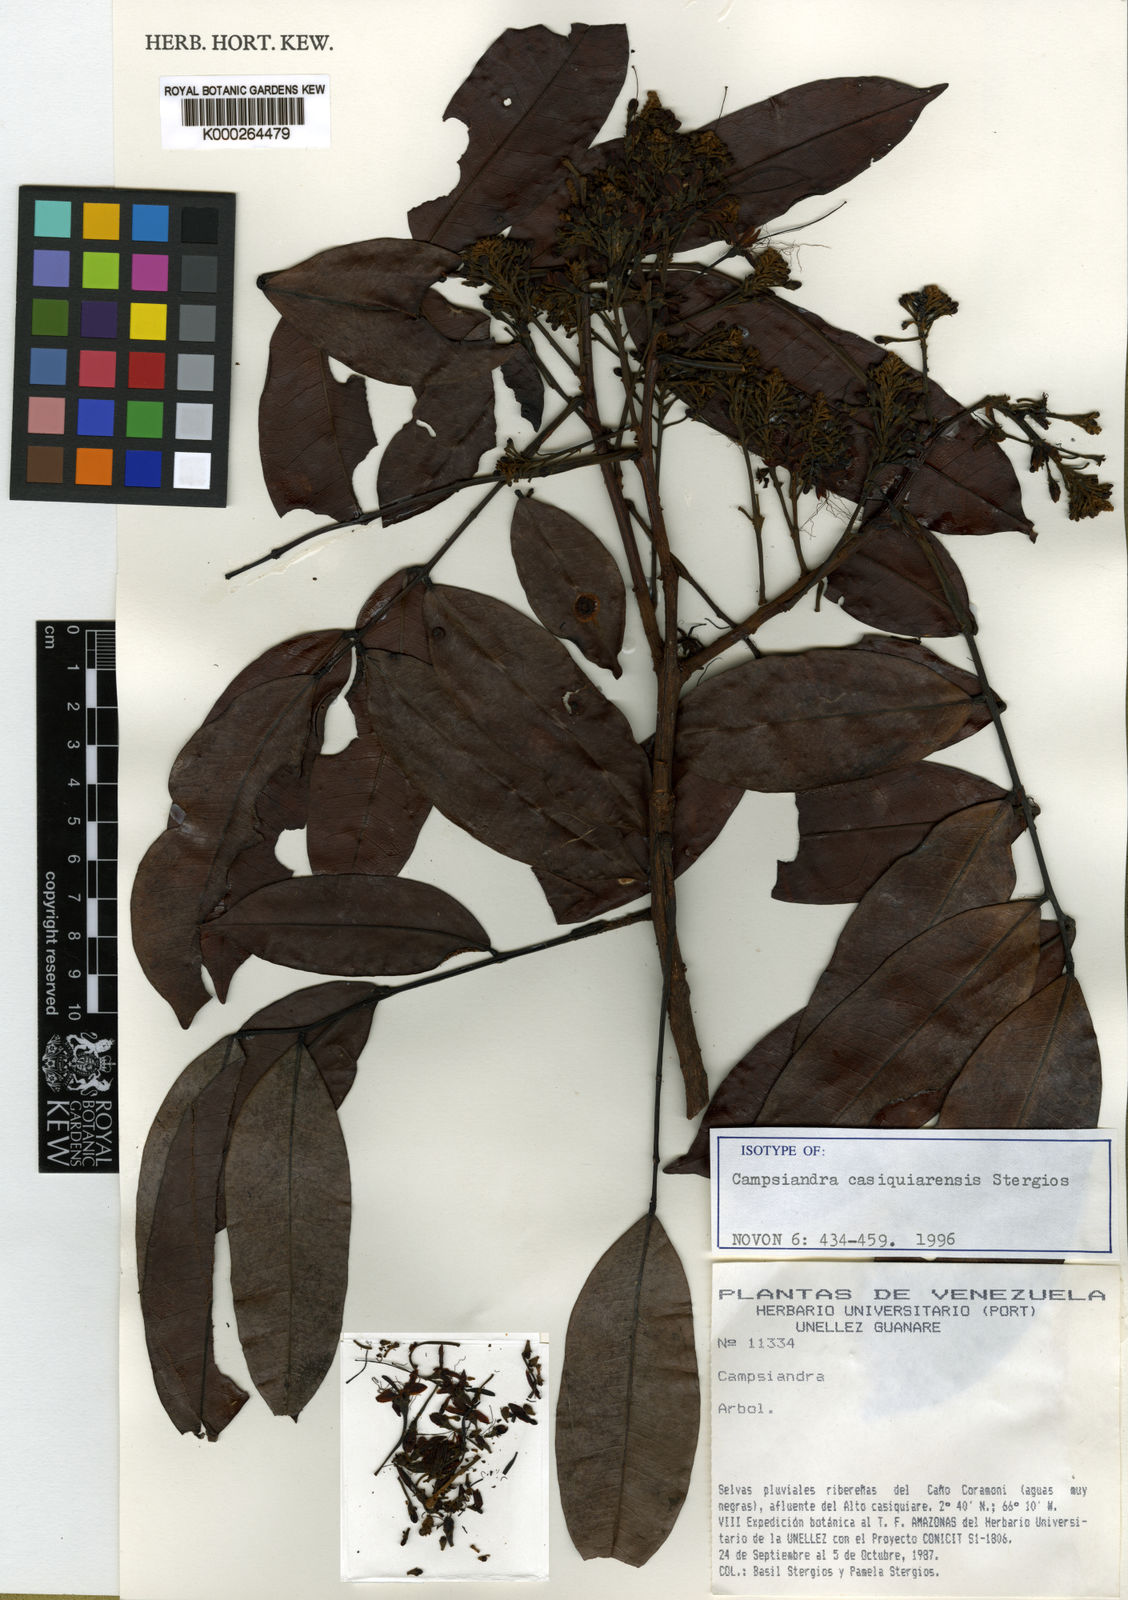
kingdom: Plantae
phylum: Tracheophyta
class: Magnoliopsida
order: Fabales
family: Fabaceae
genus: Campsiandra
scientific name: Campsiandra casiquiarensis
